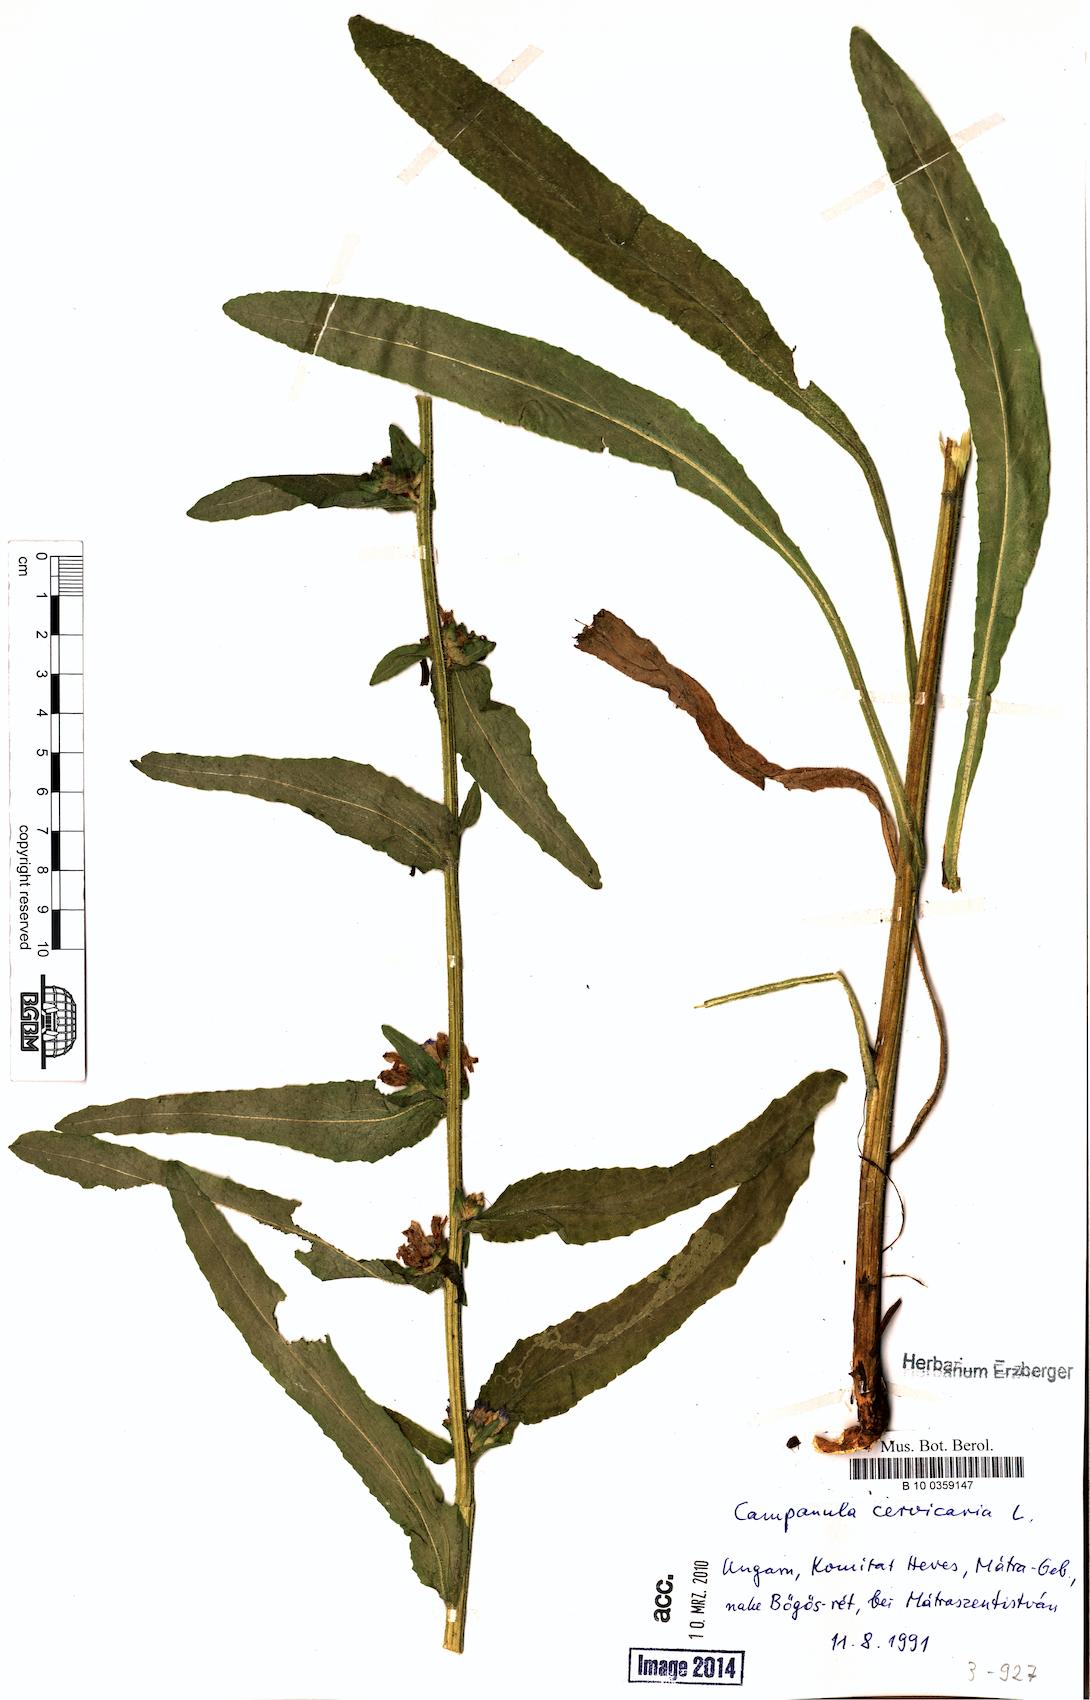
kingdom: Plantae
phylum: Tracheophyta
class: Magnoliopsida
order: Asterales
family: Campanulaceae
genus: Campanula
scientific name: Campanula cervicaria
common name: Bristly bellflower
